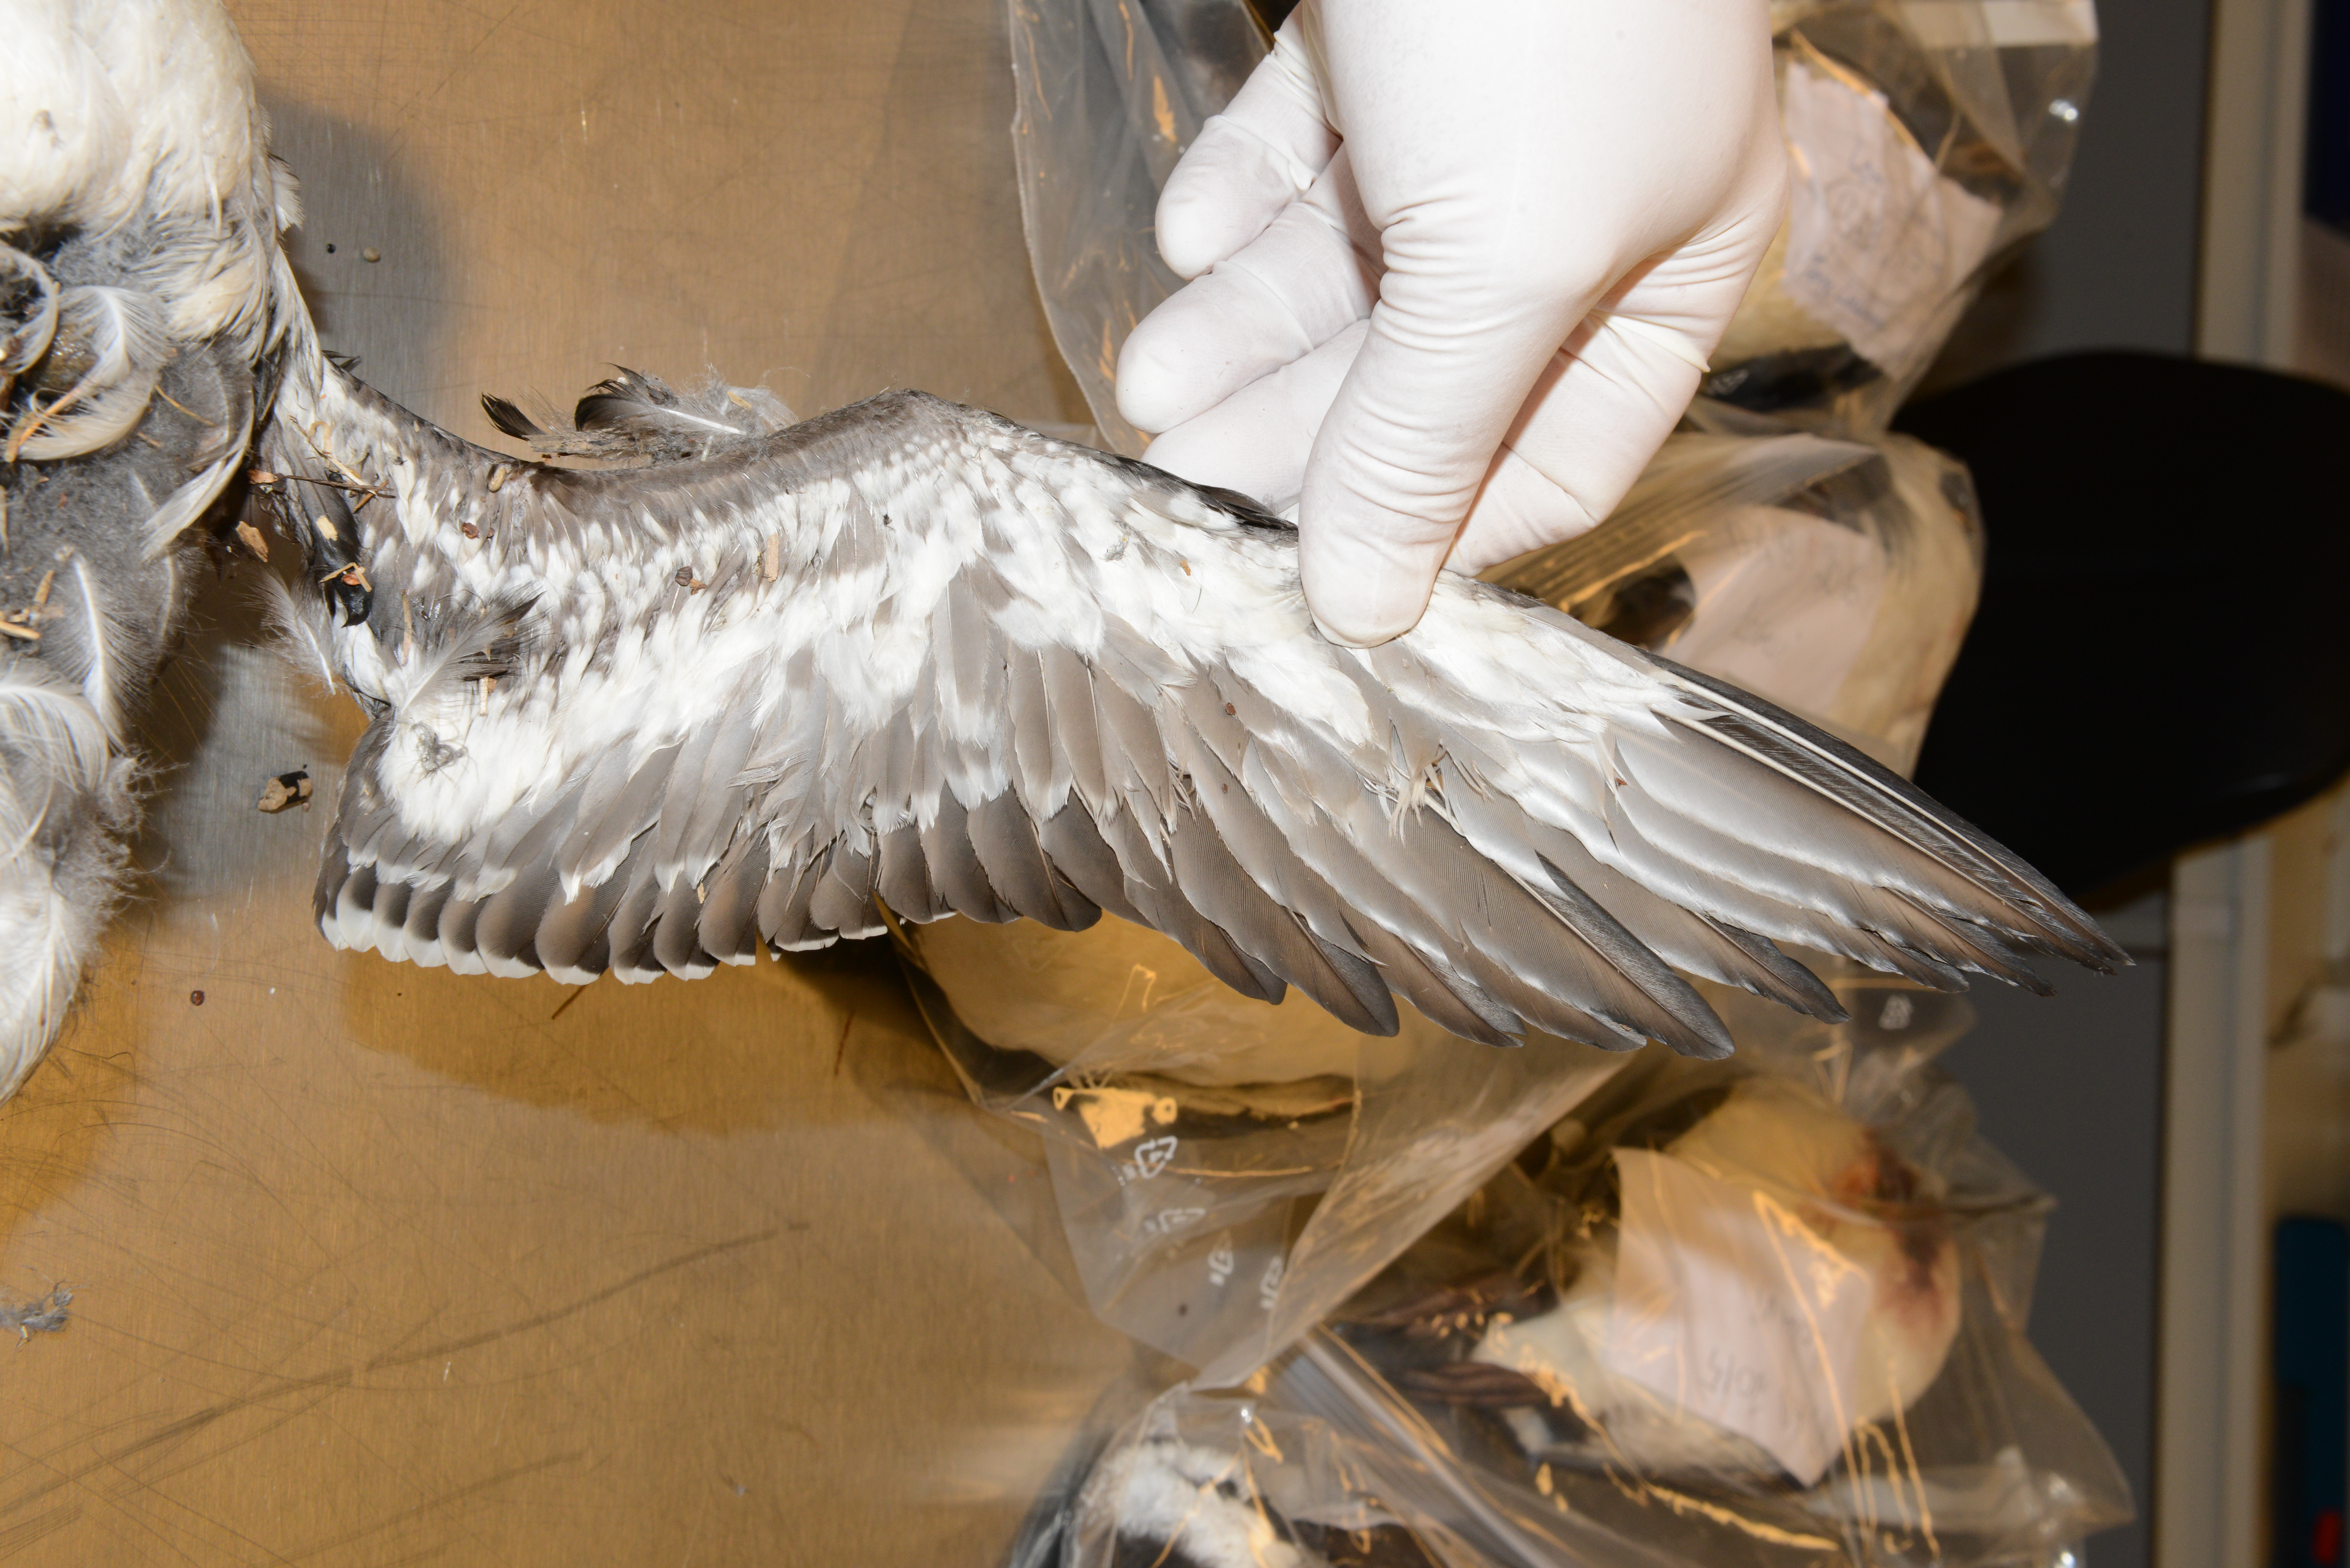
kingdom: Animalia
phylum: Chordata
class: Aves
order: Charadriiformes
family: Alcidae
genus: Uria
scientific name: Uria aalge
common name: Common murre
